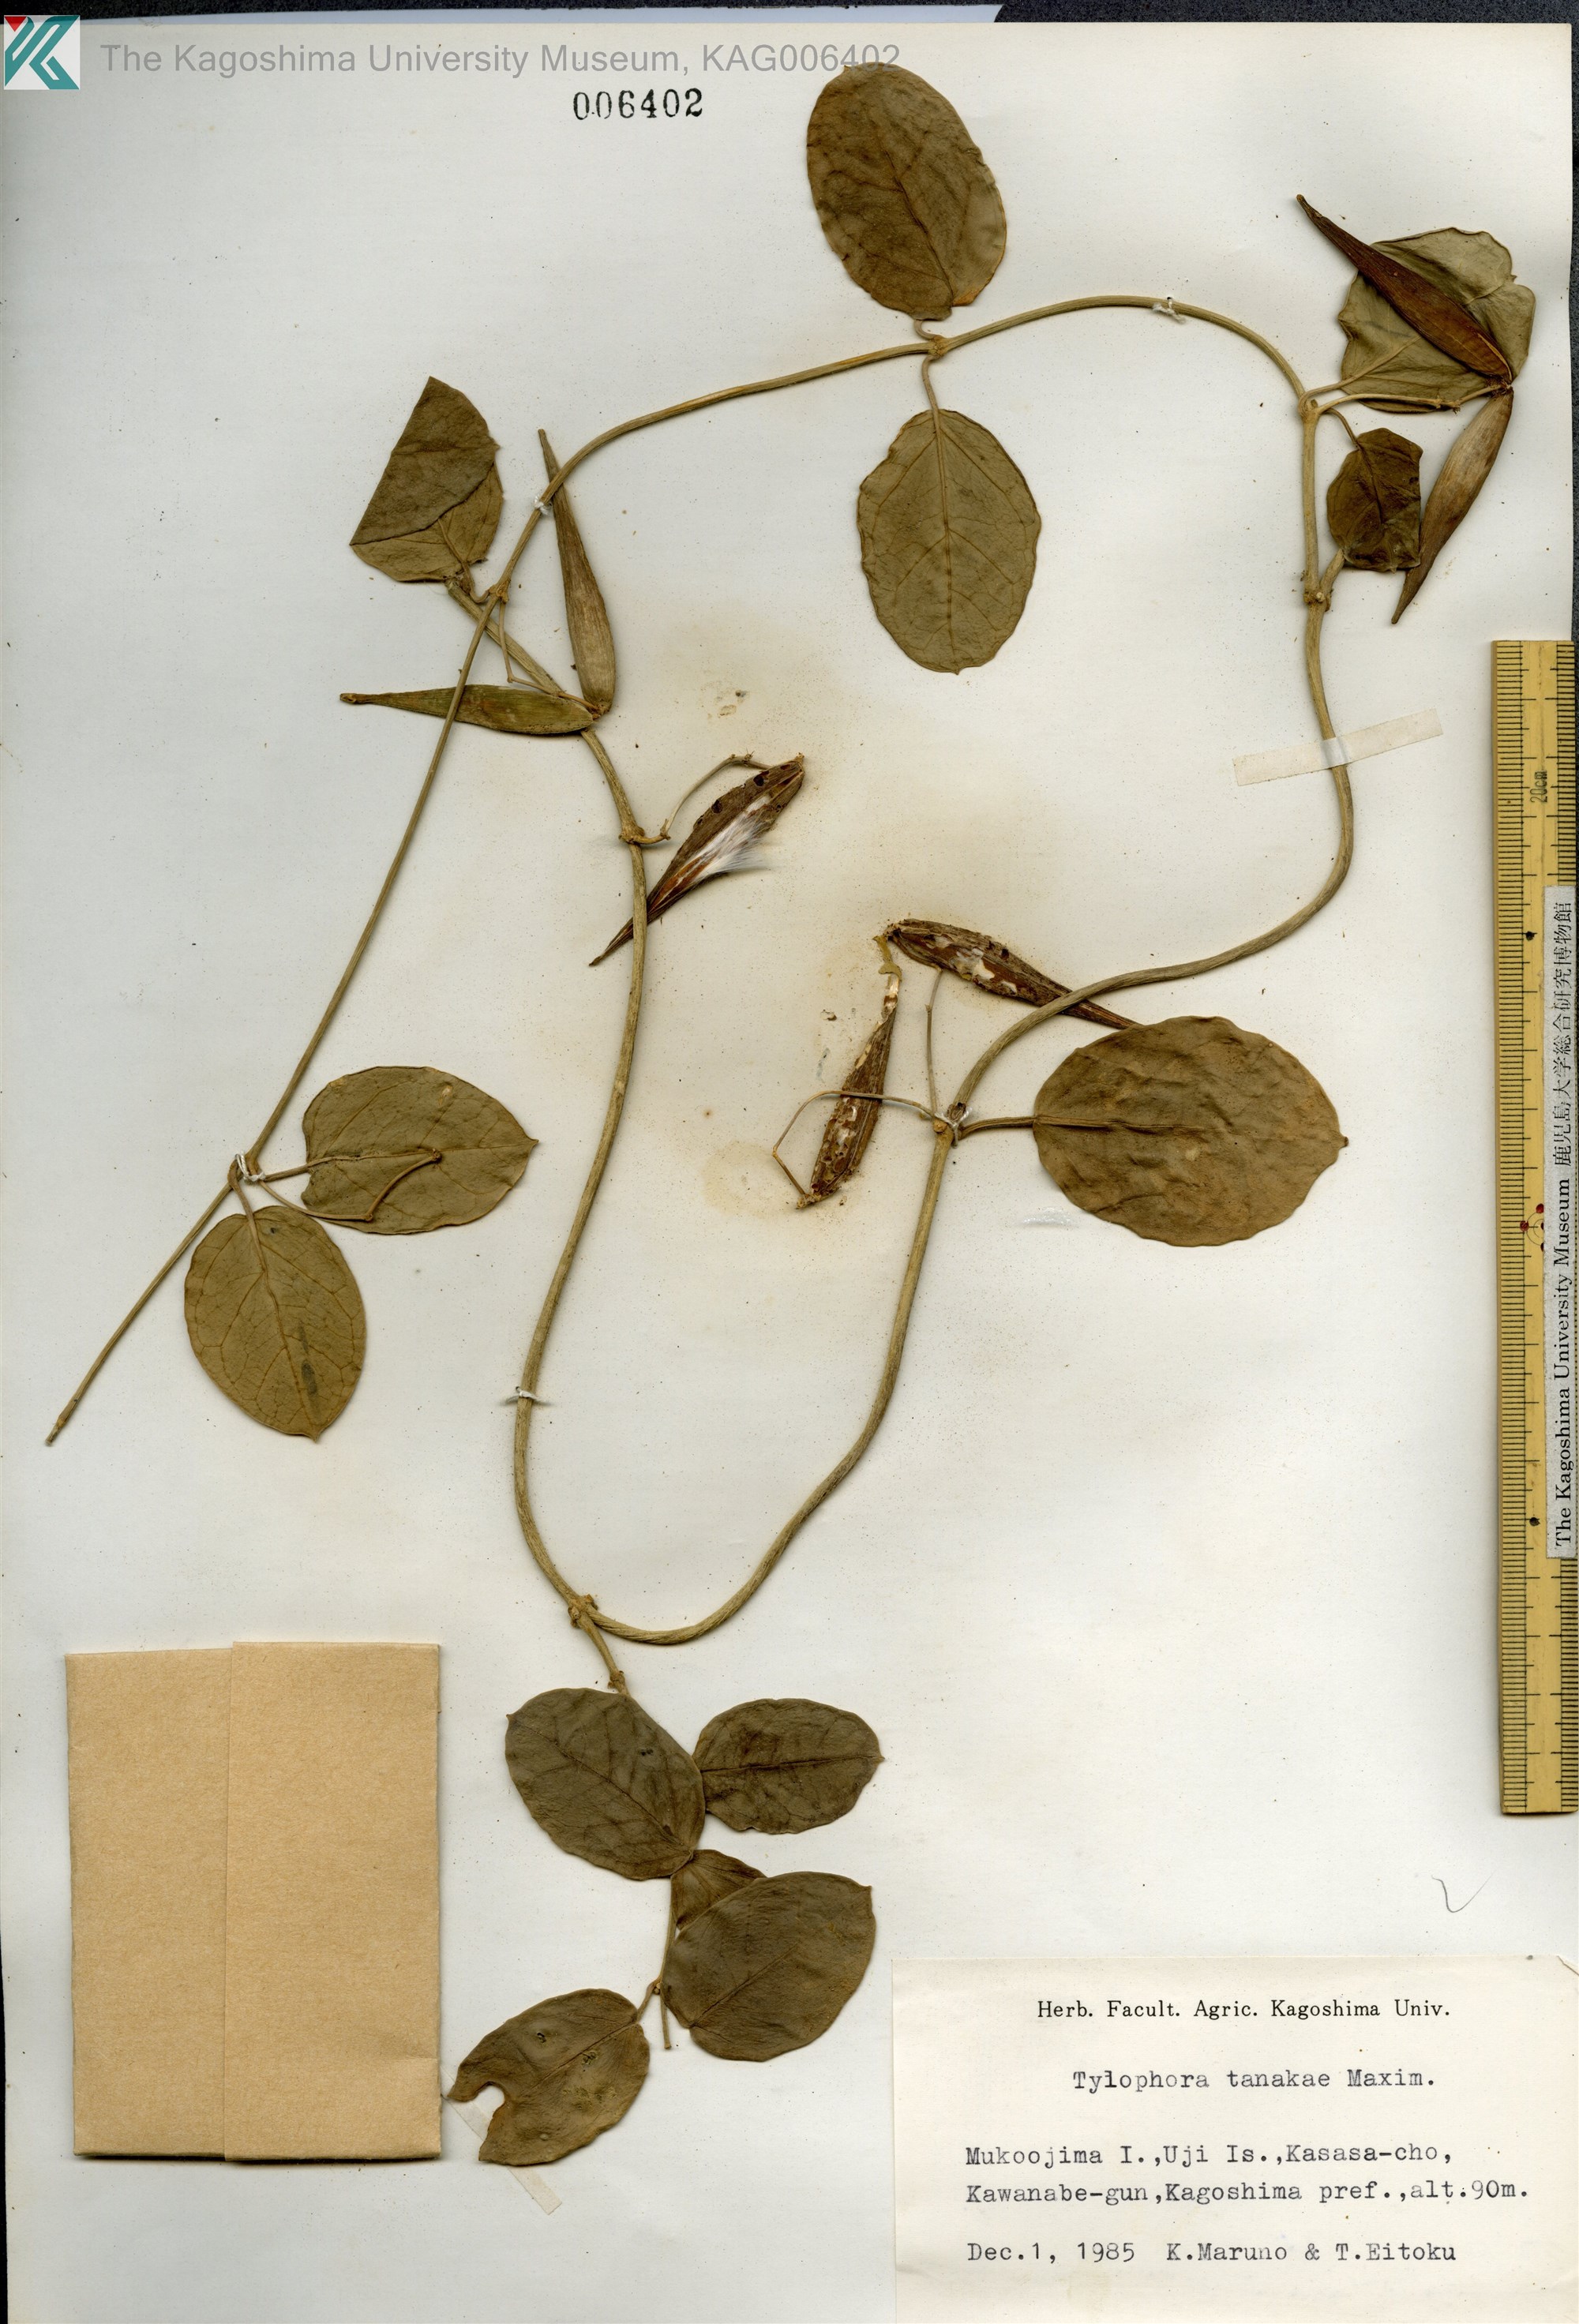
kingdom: Plantae
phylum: Tracheophyta
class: Magnoliopsida
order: Gentianales
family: Apocynaceae
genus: Vincetoxicum
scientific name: Vincetoxicum Tylophora tanakae
